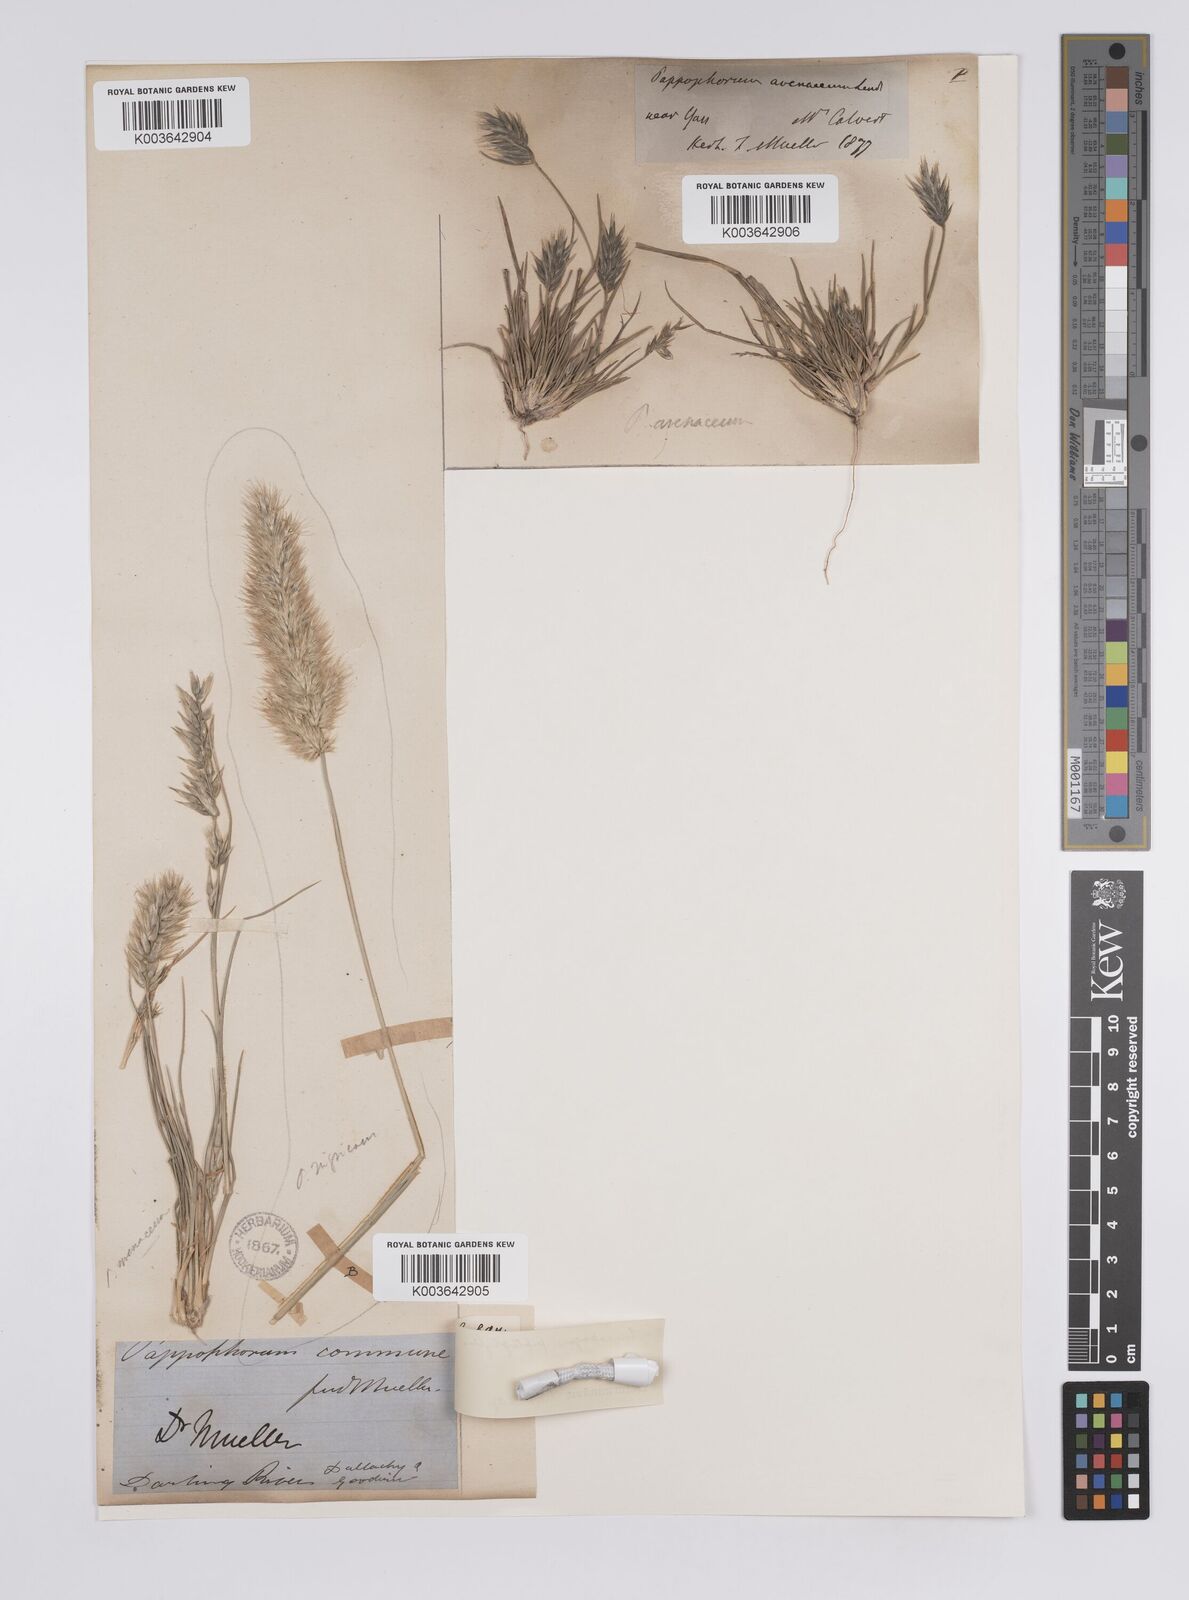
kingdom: Plantae
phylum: Tracheophyta
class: Liliopsida
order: Poales
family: Poaceae
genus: Enneapogon
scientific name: Enneapogon avenaceus
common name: Hairy oat grass
